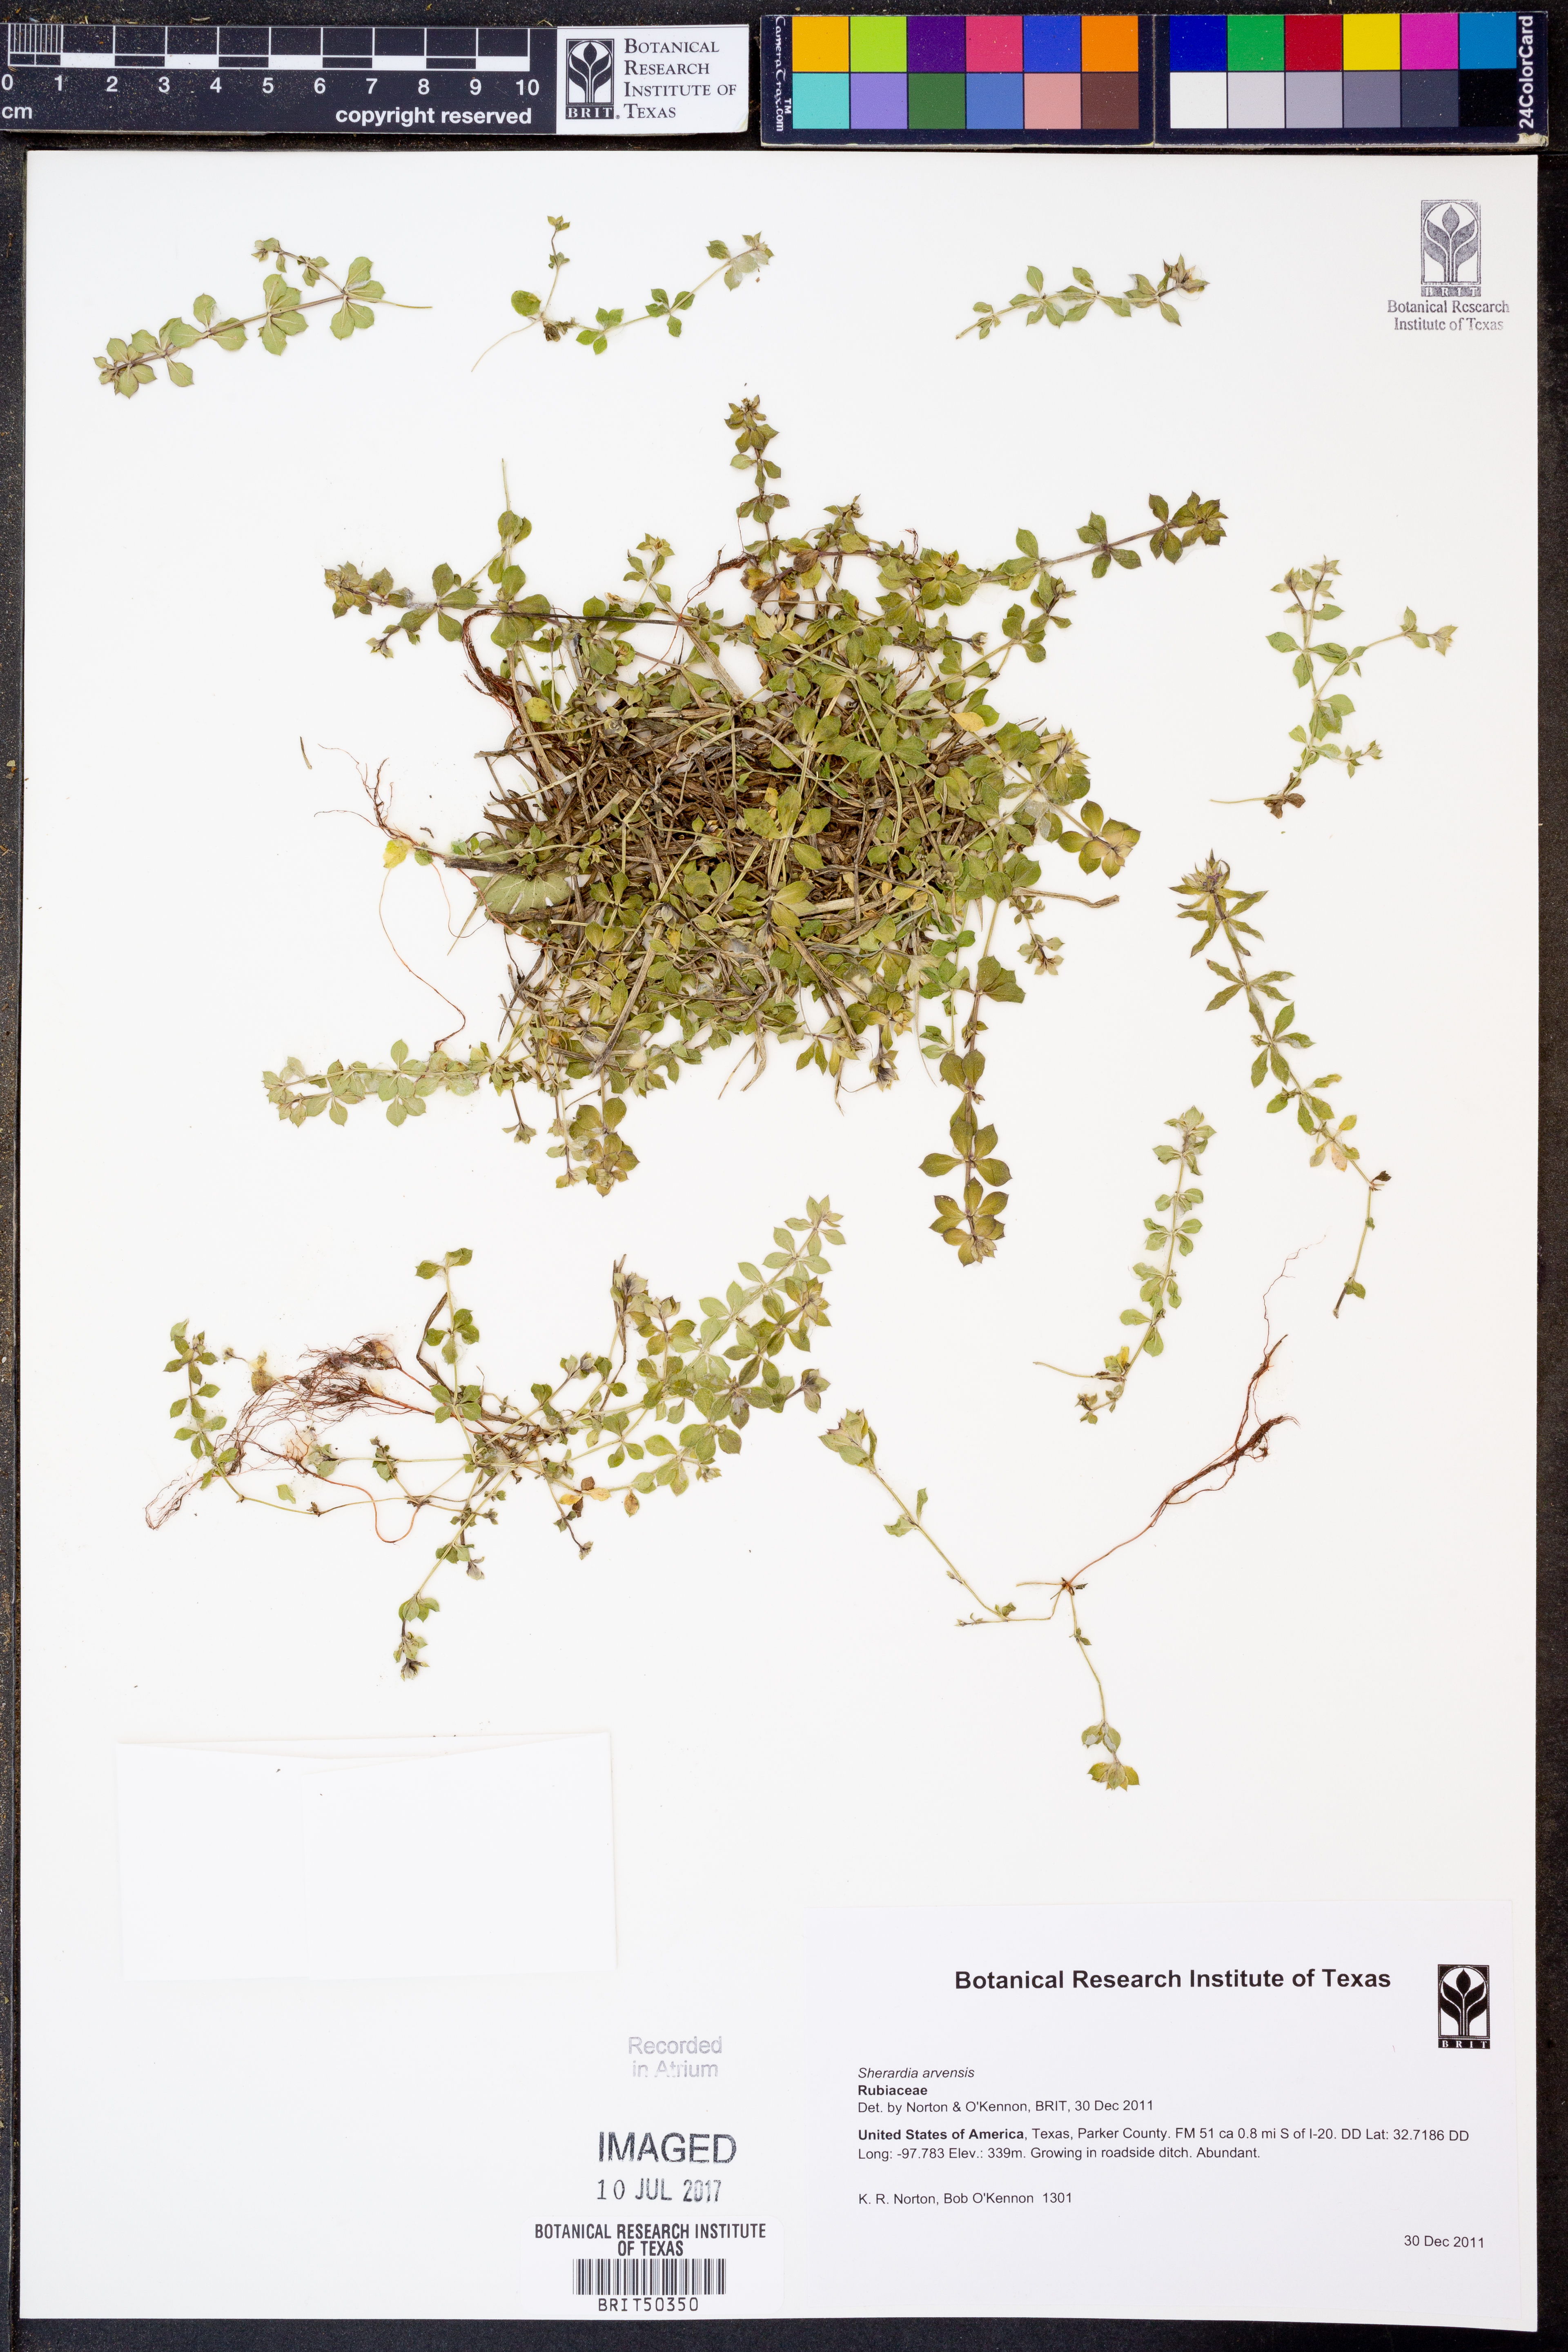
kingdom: Plantae
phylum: Tracheophyta
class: Magnoliopsida
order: Gentianales
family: Rubiaceae
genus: Sherardia
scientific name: Sherardia arvensis
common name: Field madder
